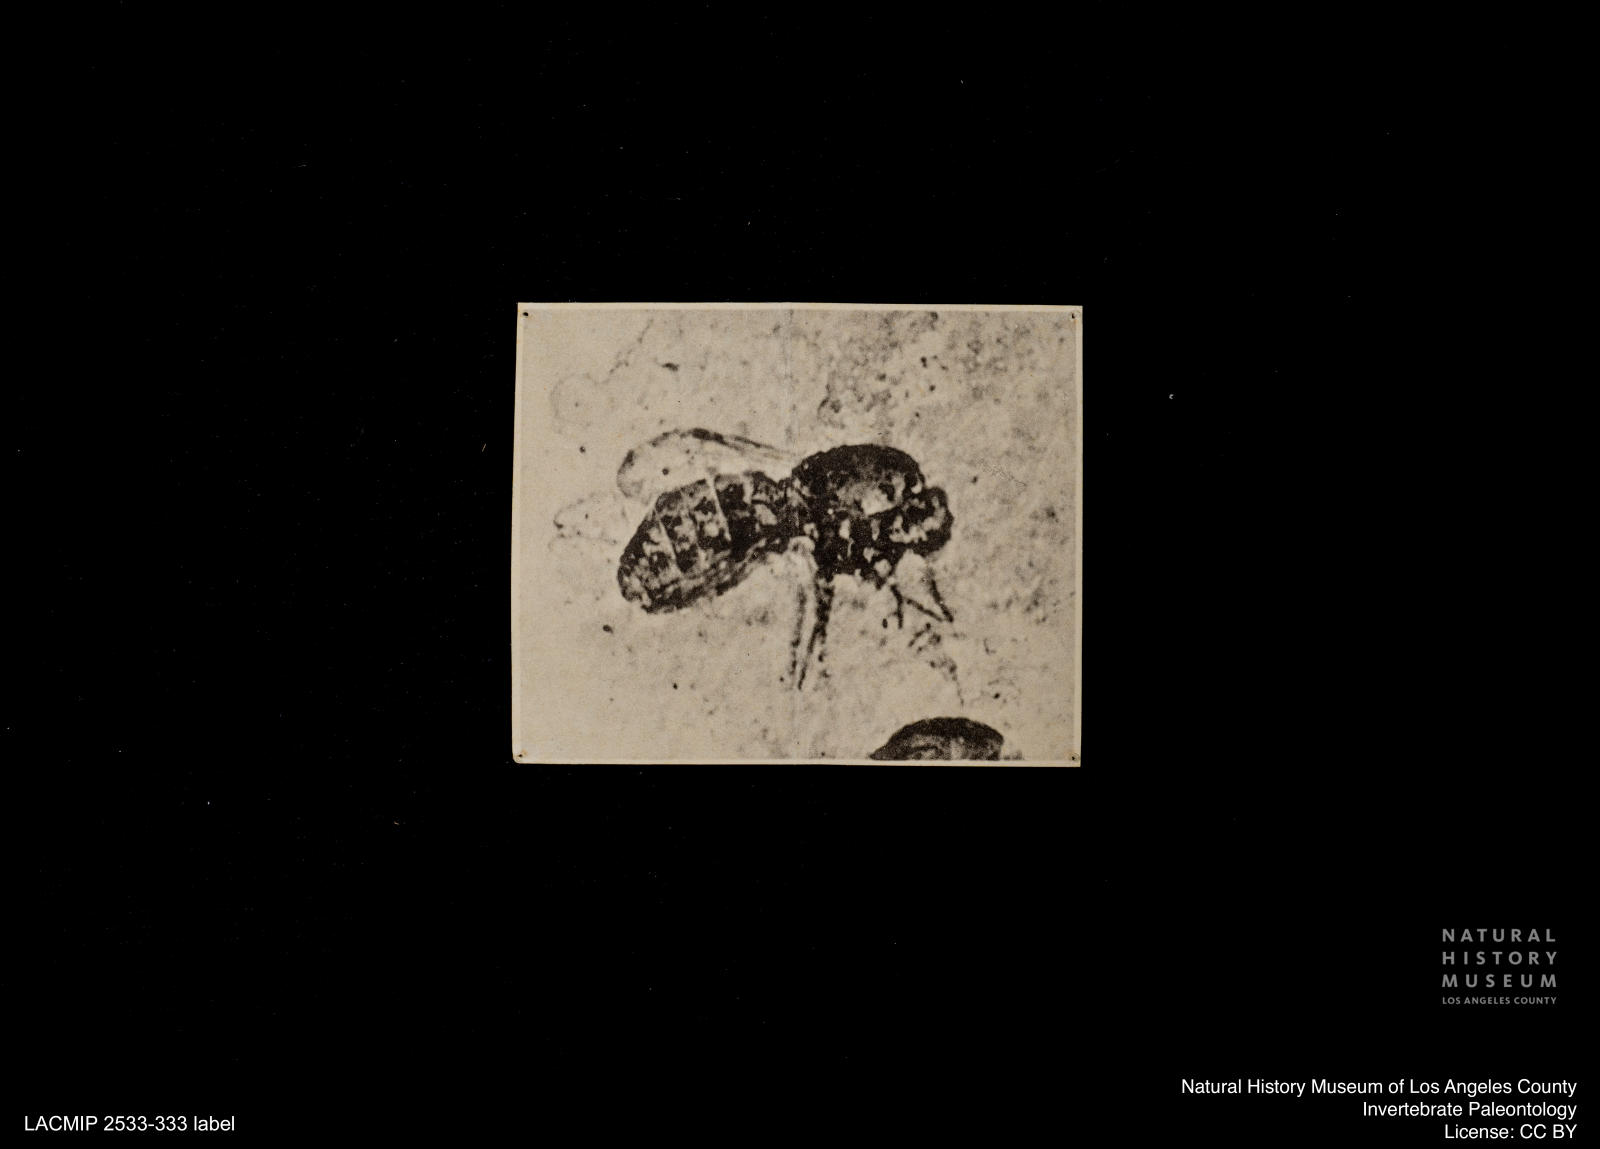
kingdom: Animalia
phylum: Arthropoda
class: Insecta
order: Diptera
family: Ceratopogonidae
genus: Culicoides
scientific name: Culicoides abbreviatipennis
